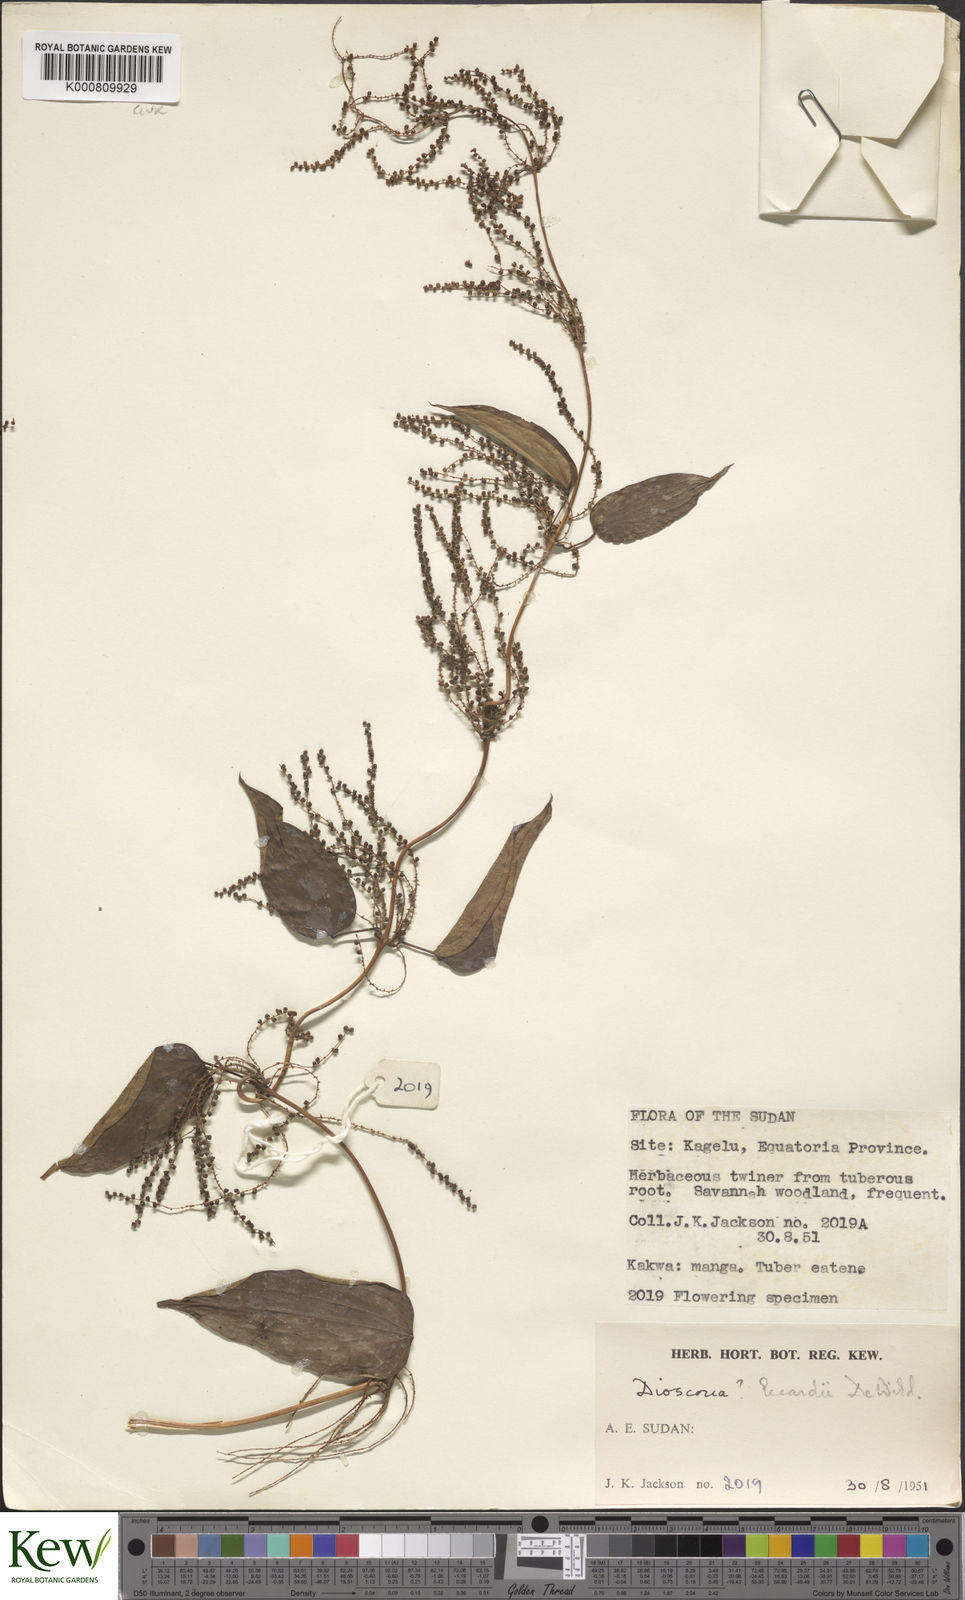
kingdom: Plantae
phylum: Tracheophyta
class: Liliopsida
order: Dioscoreales
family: Dioscoreaceae
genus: Dioscorea
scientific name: Dioscorea sagittifolia
